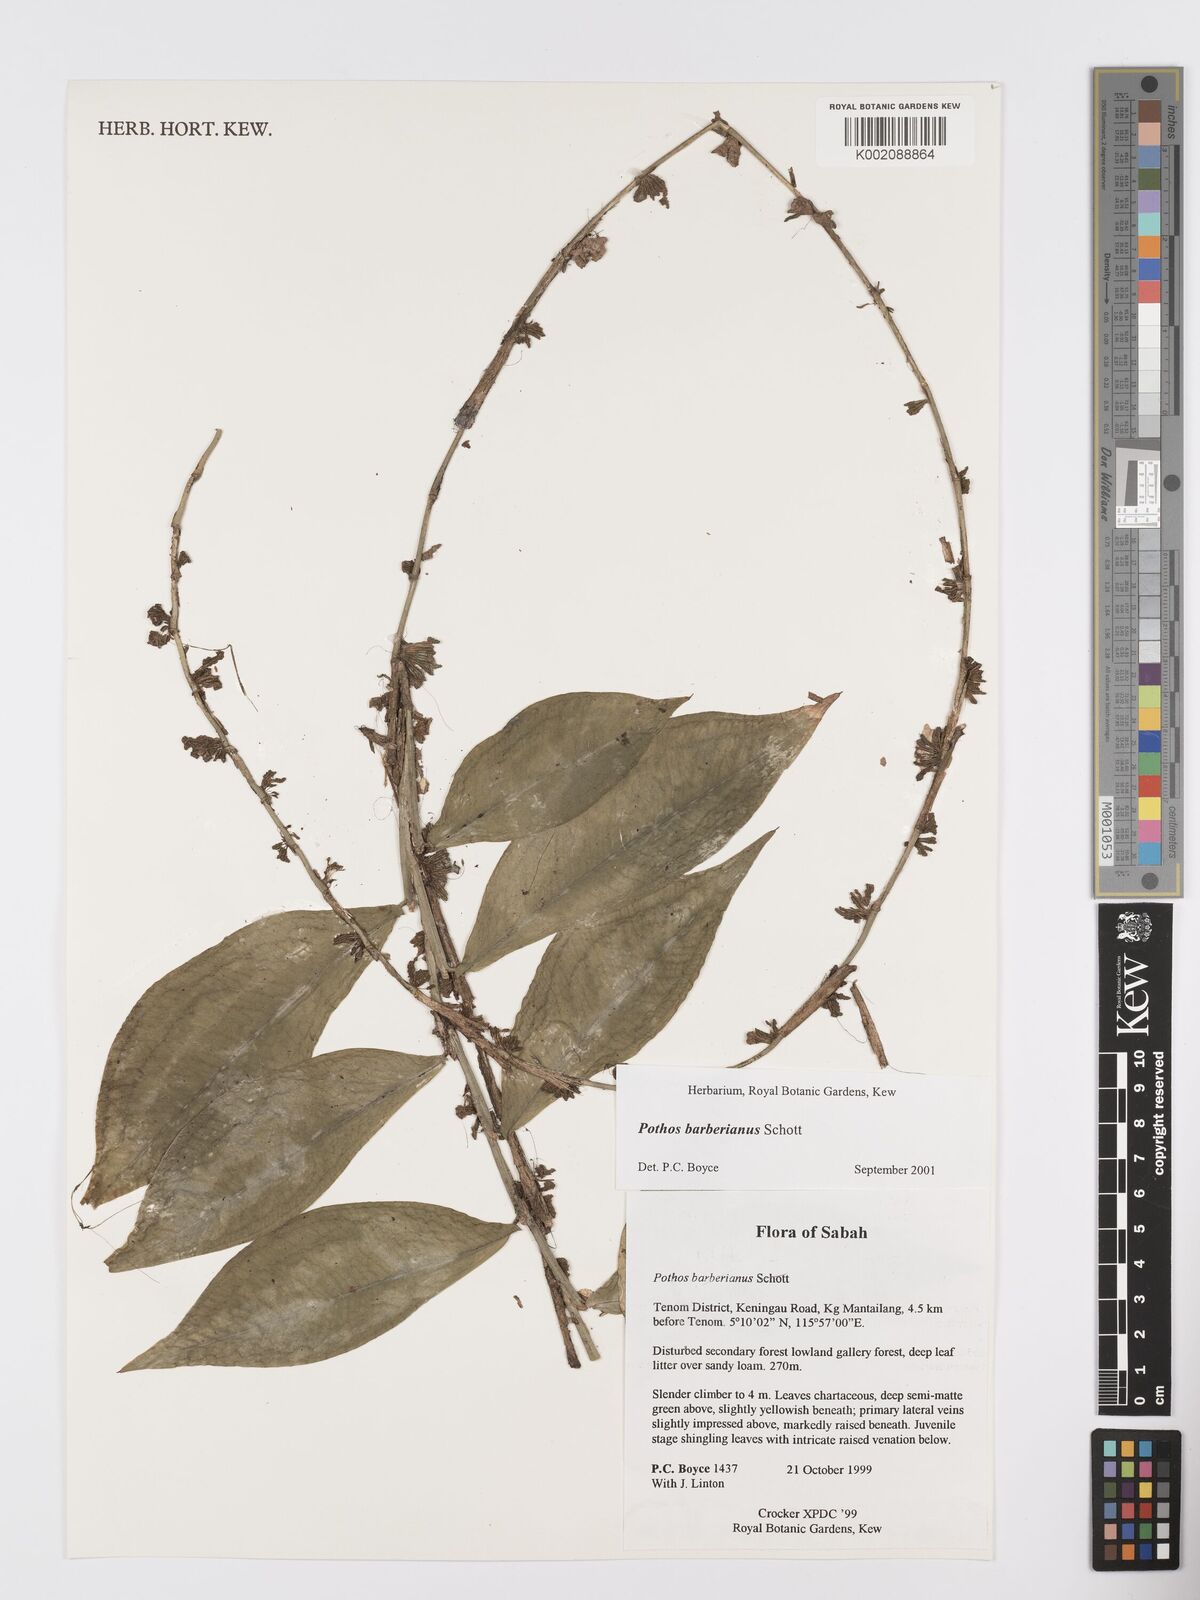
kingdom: Plantae
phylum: Tracheophyta
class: Liliopsida
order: Alismatales
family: Araceae
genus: Pothos
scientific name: Pothos barberianus
